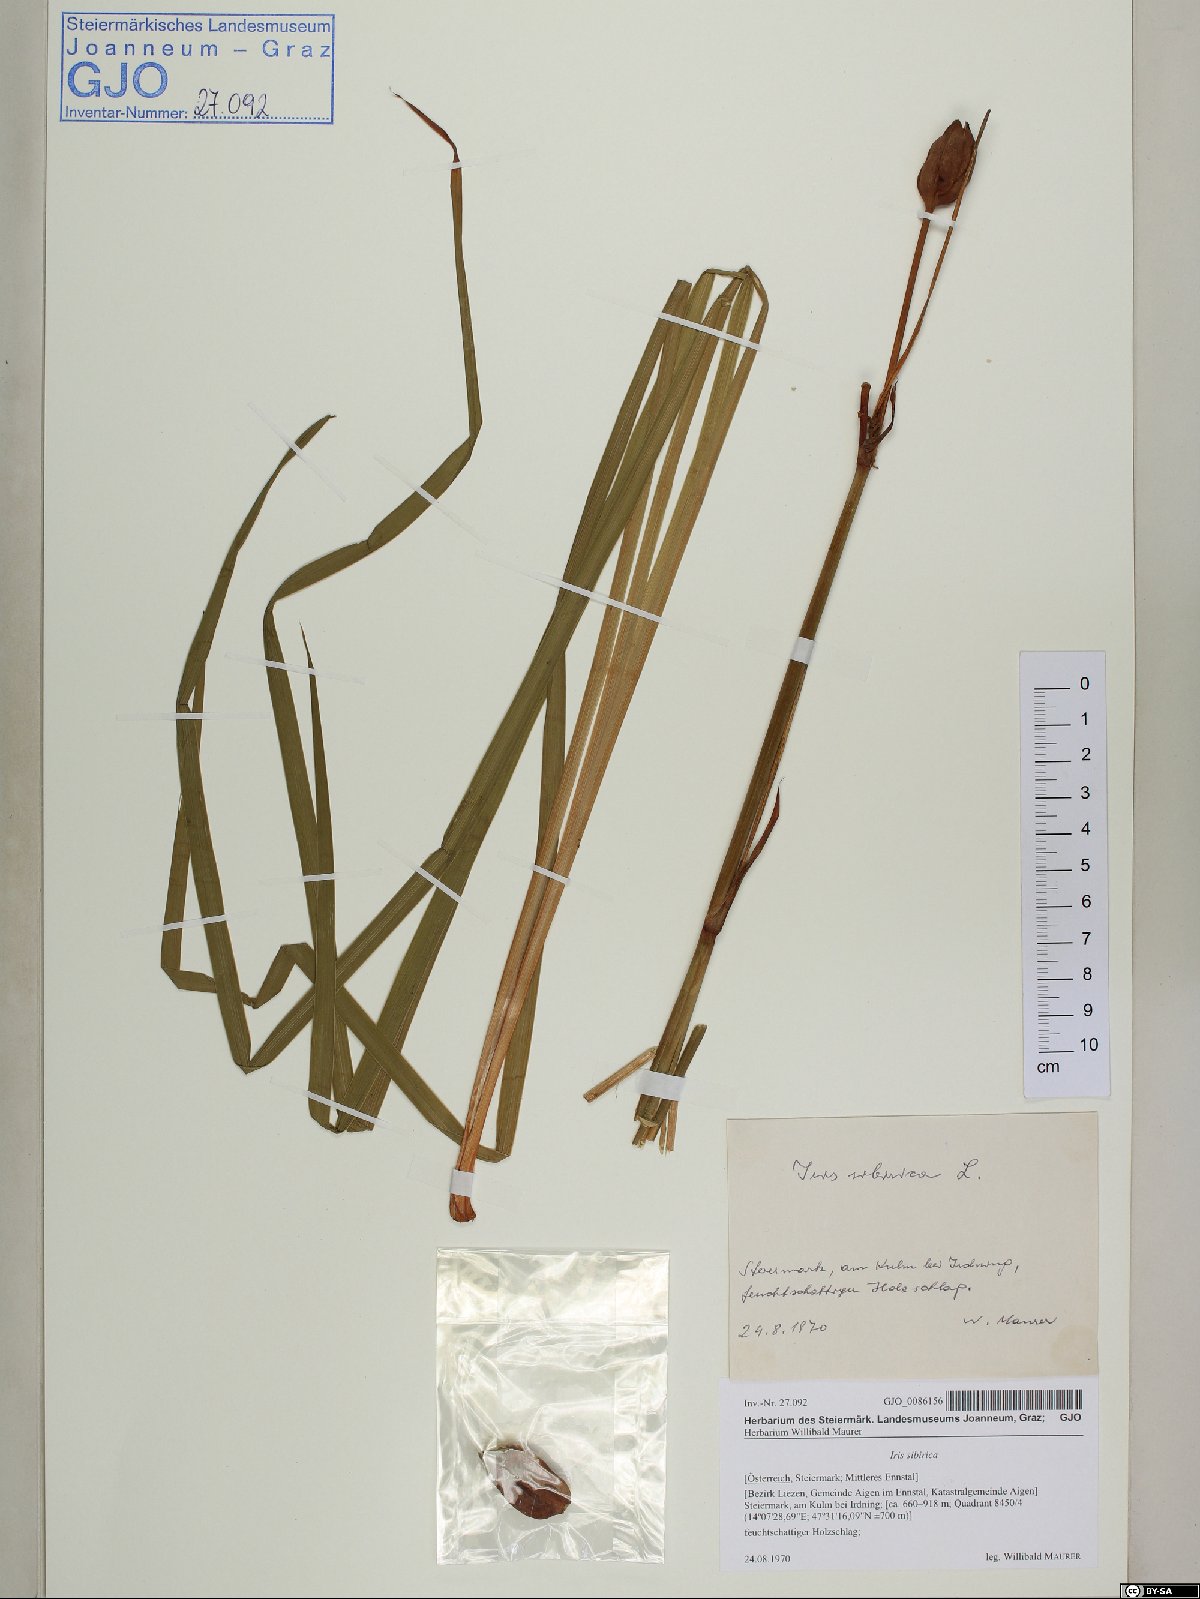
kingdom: Plantae
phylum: Tracheophyta
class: Liliopsida
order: Asparagales
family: Iridaceae
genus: Iris
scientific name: Iris sibirica
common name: Siberian iris
